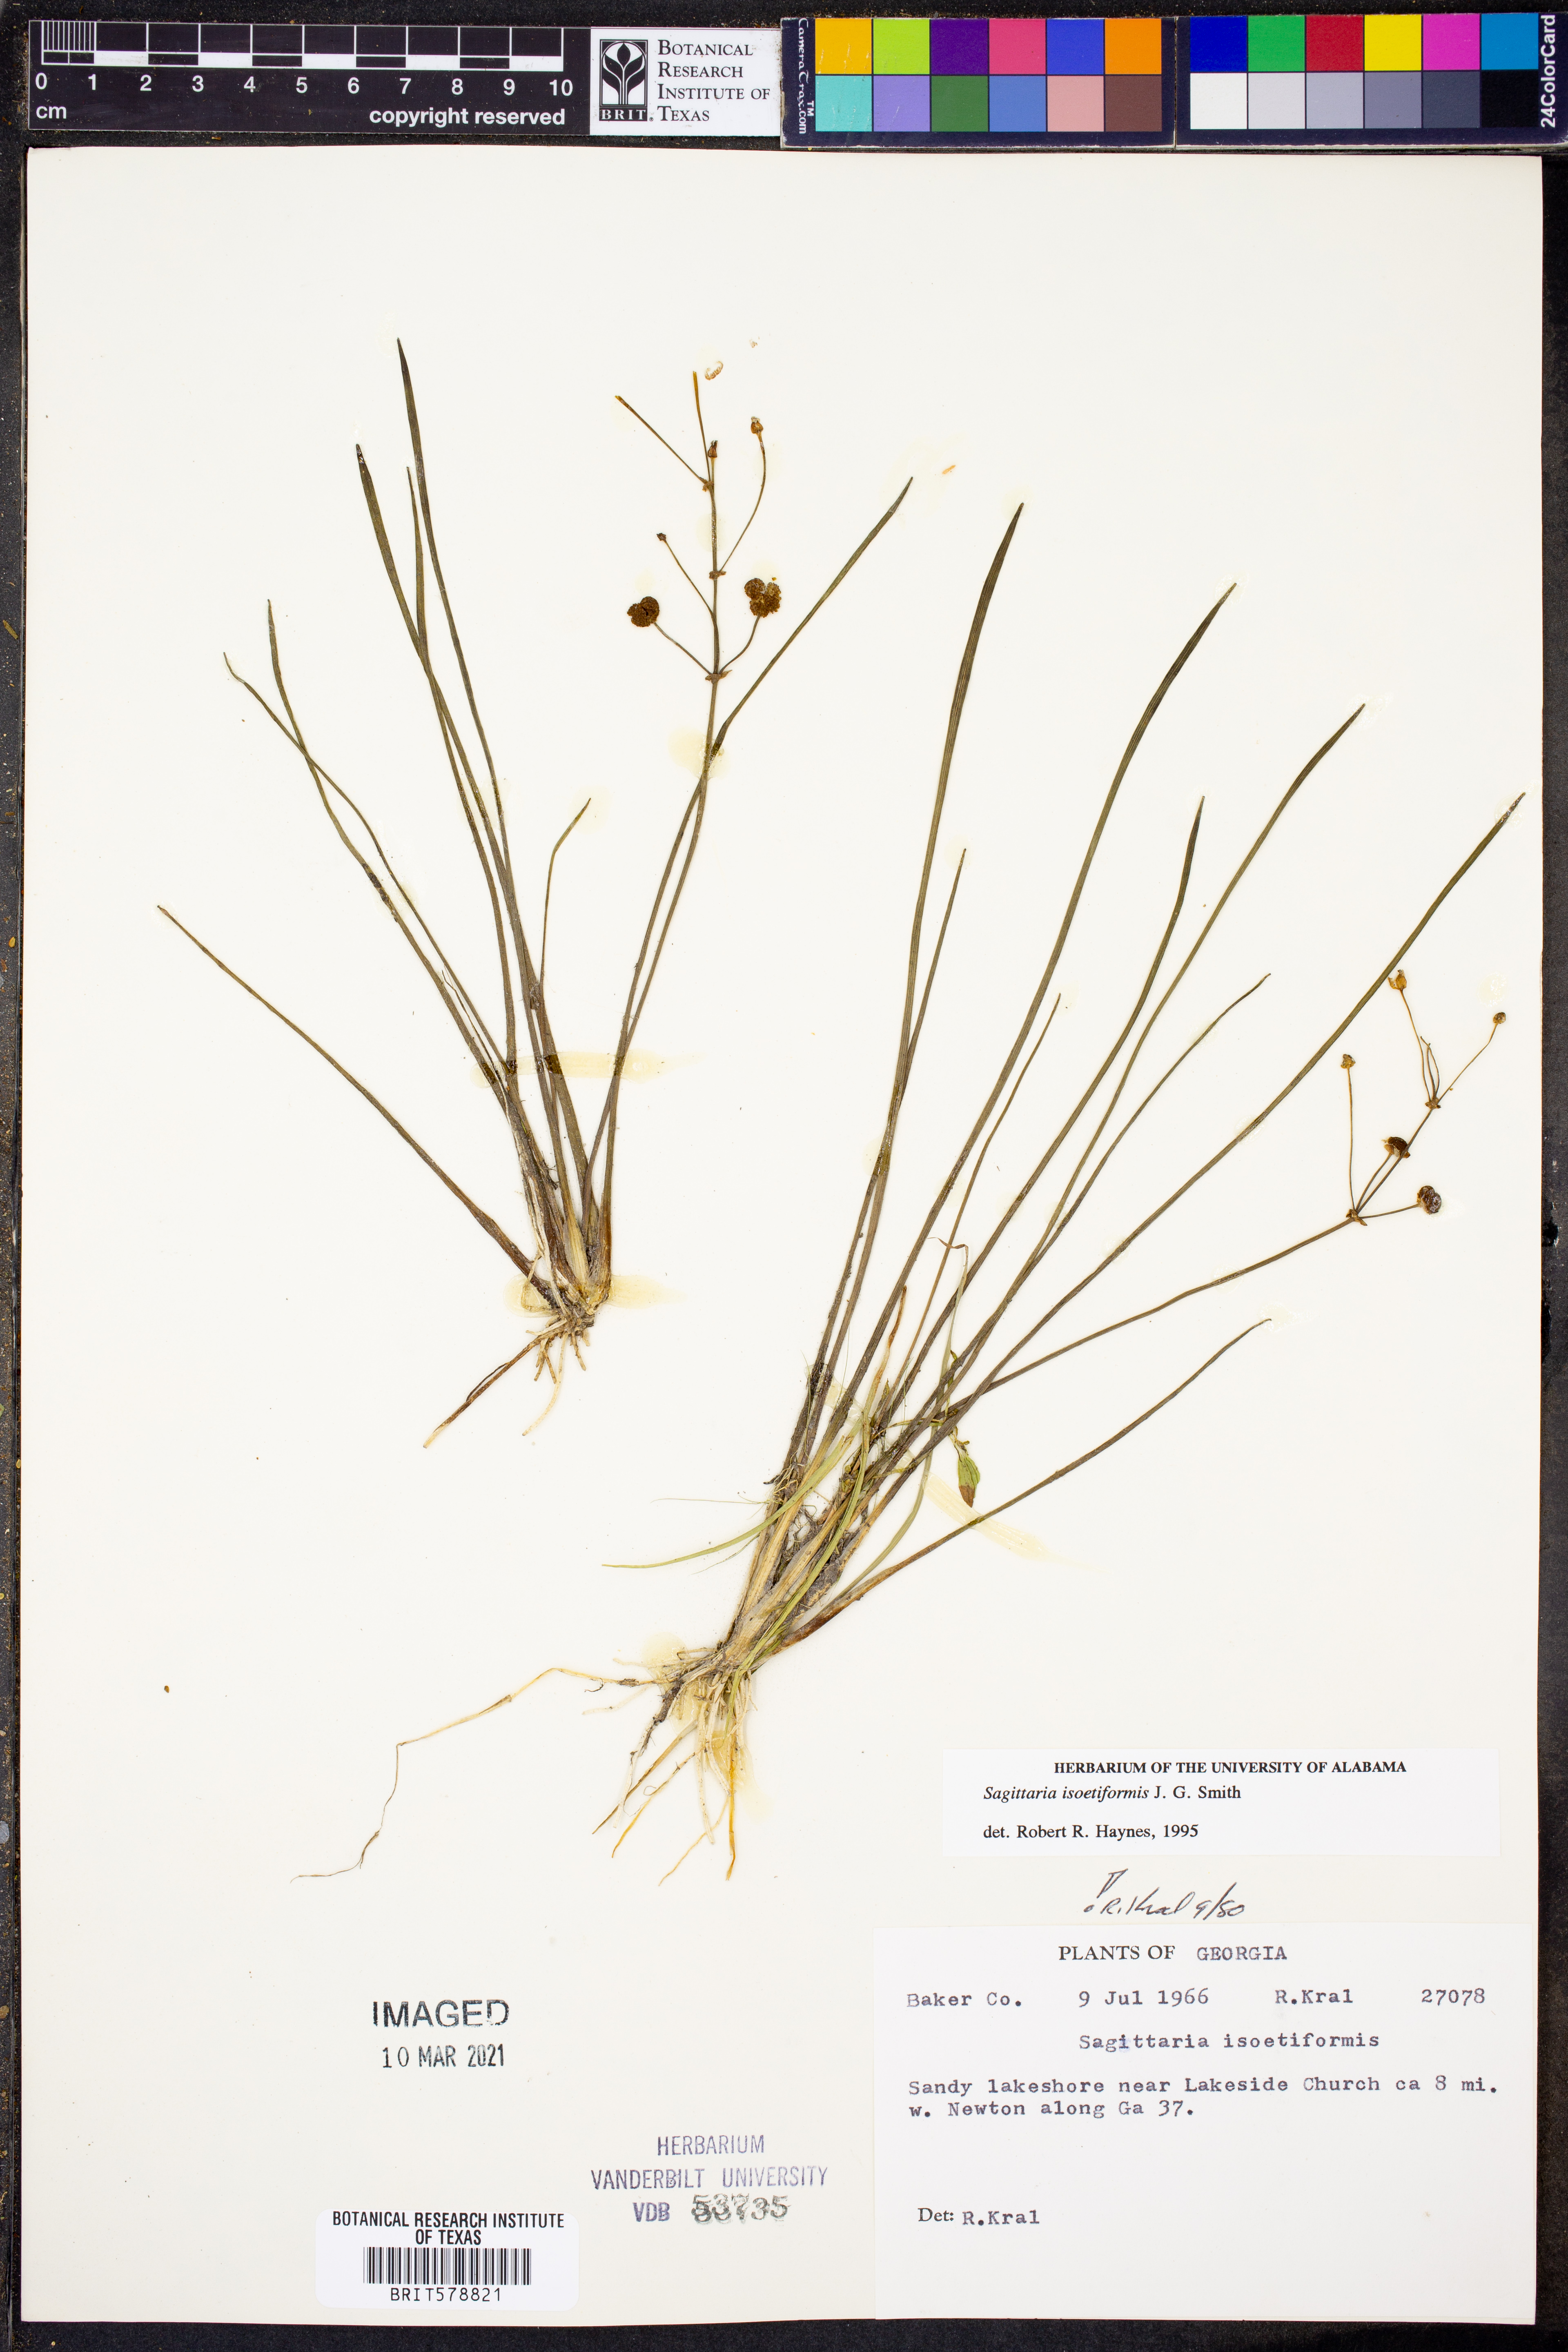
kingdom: Plantae
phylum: Tracheophyta
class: Liliopsida
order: Alismatales
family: Alismataceae
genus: Sagittaria
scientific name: Sagittaria isoetiformis
